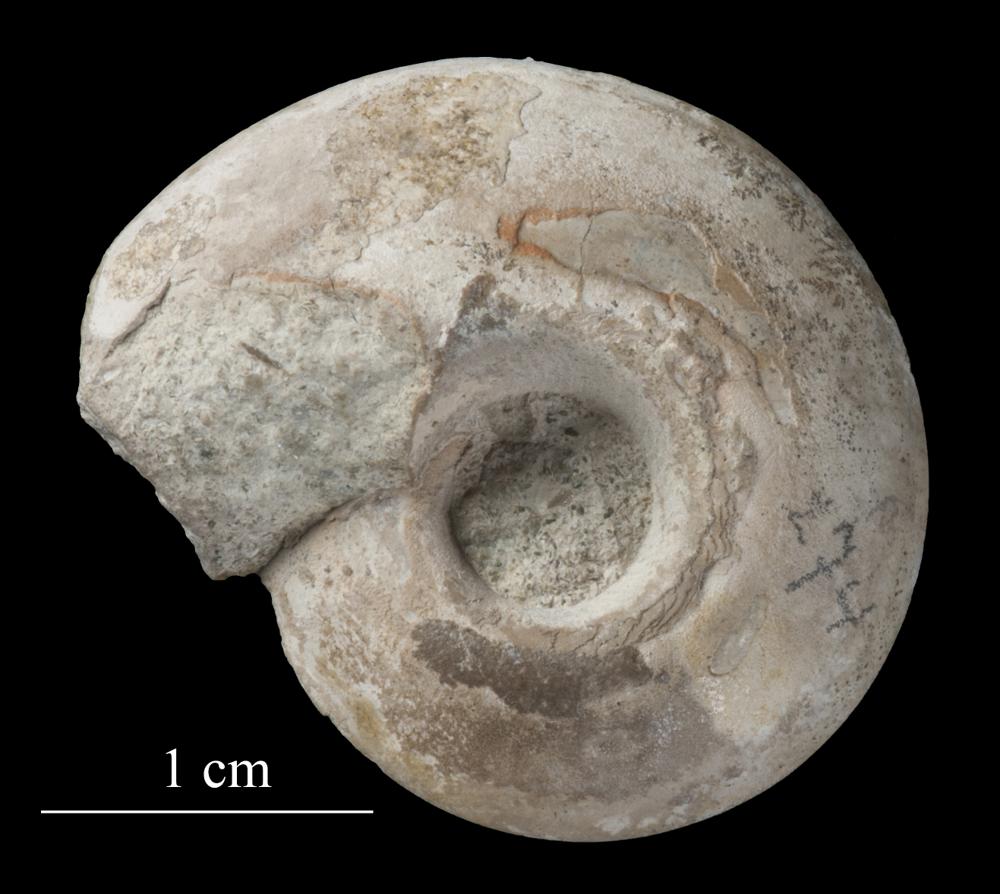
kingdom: Animalia
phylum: Mollusca
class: Gastropoda
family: Lesueurillidae
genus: Pararaphistoma
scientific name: Pararaphistoma Helicites qualteriata
